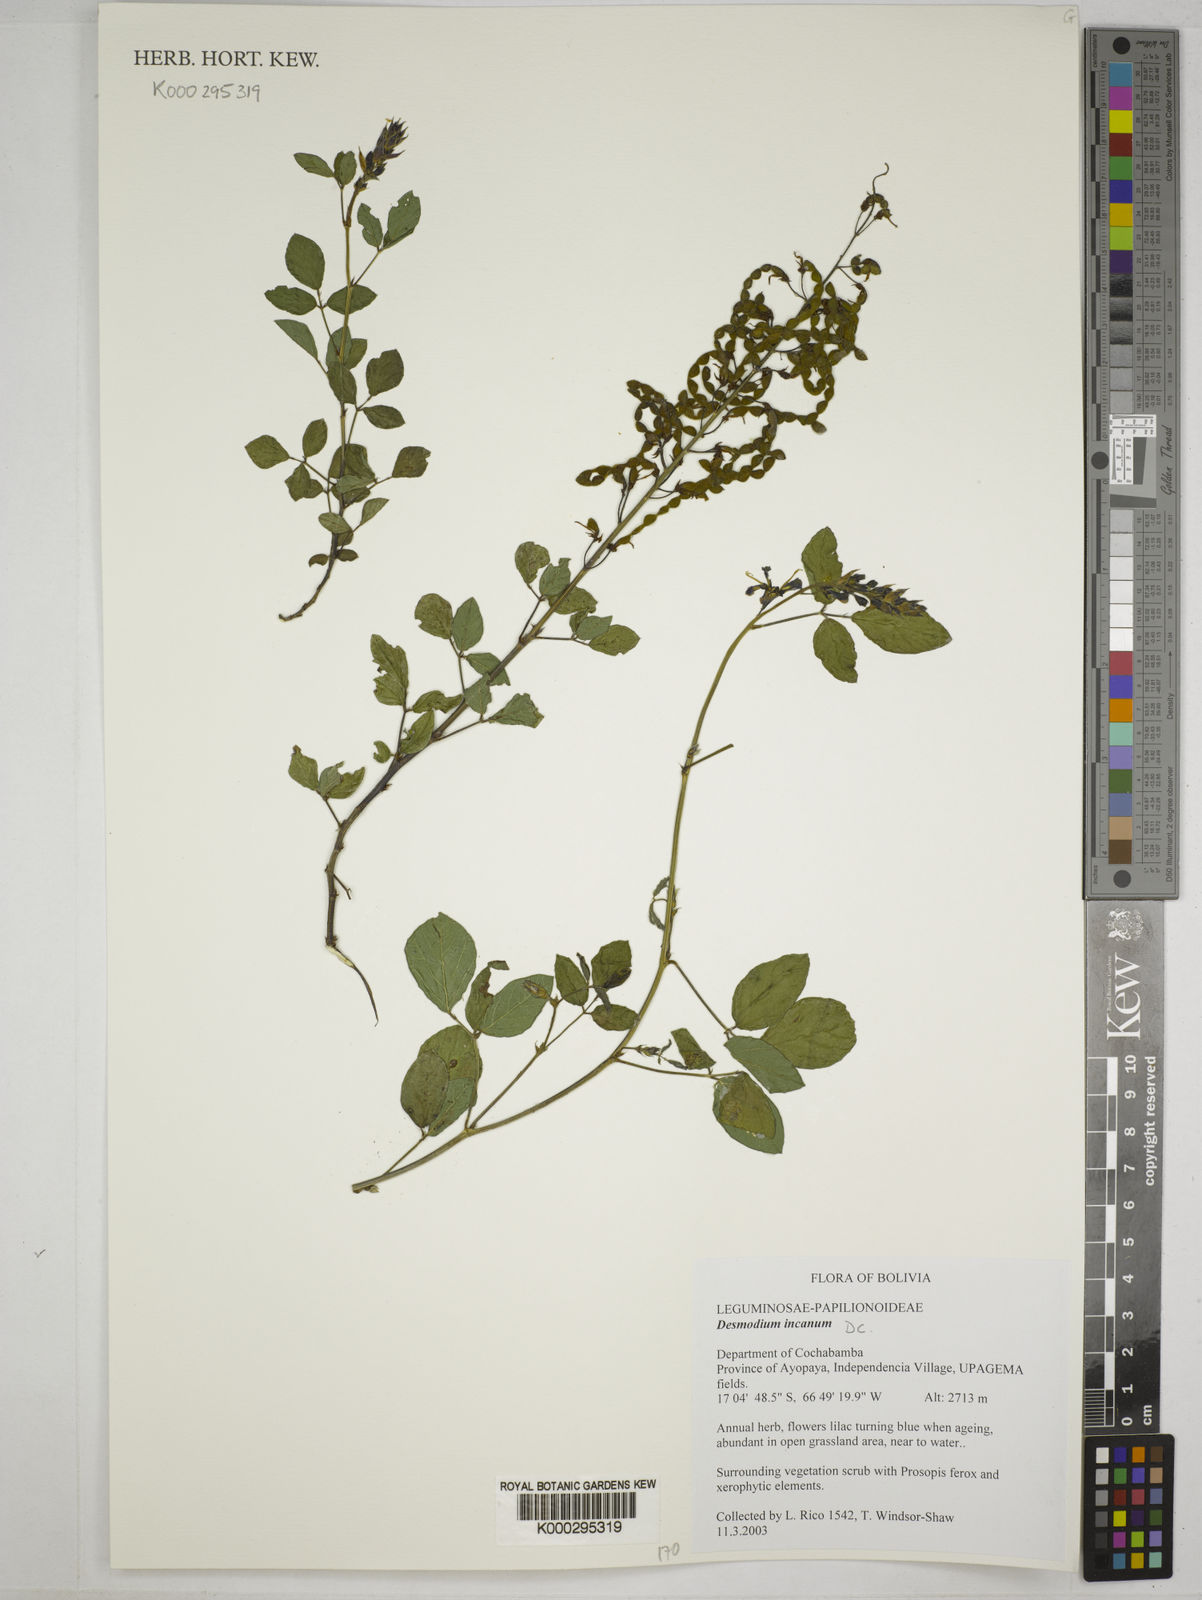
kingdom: Plantae
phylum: Tracheophyta
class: Magnoliopsida
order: Fabales
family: Fabaceae
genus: Desmodium
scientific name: Desmodium incanum
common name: Tickclover
